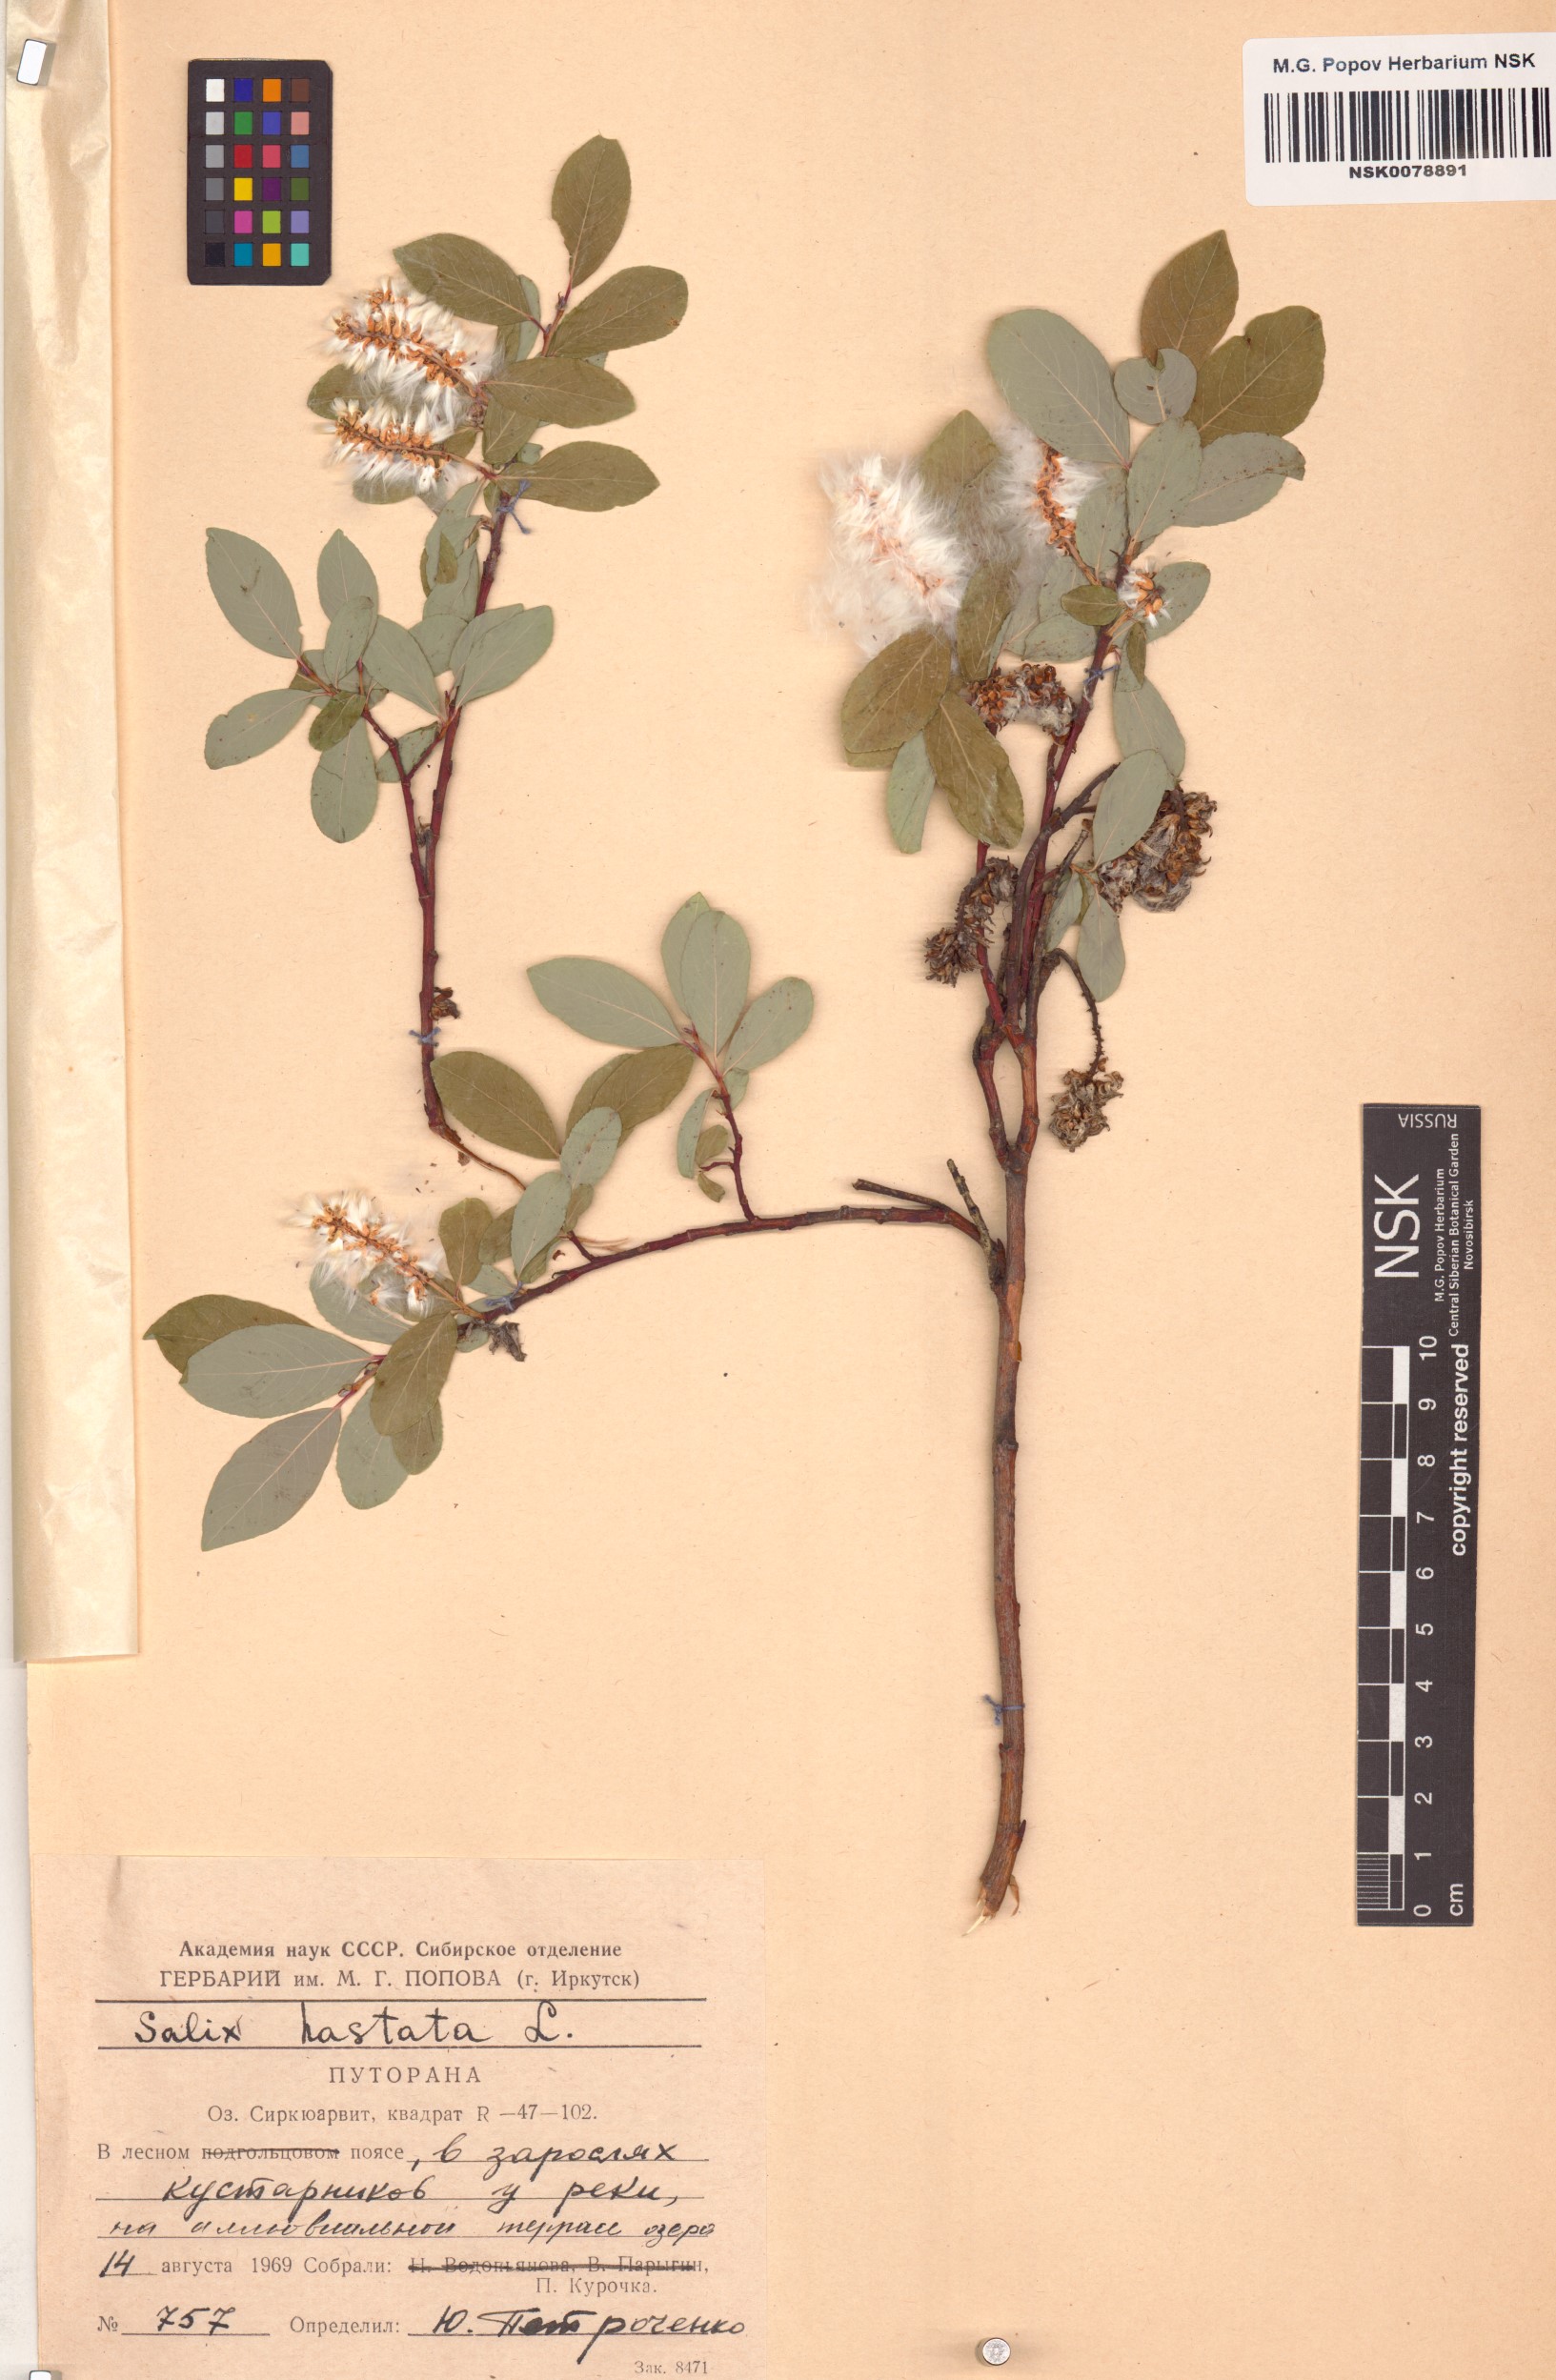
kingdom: Plantae
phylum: Tracheophyta
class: Magnoliopsida
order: Malpighiales
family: Salicaceae
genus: Salix
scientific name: Salix hastata
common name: Halberd willow
